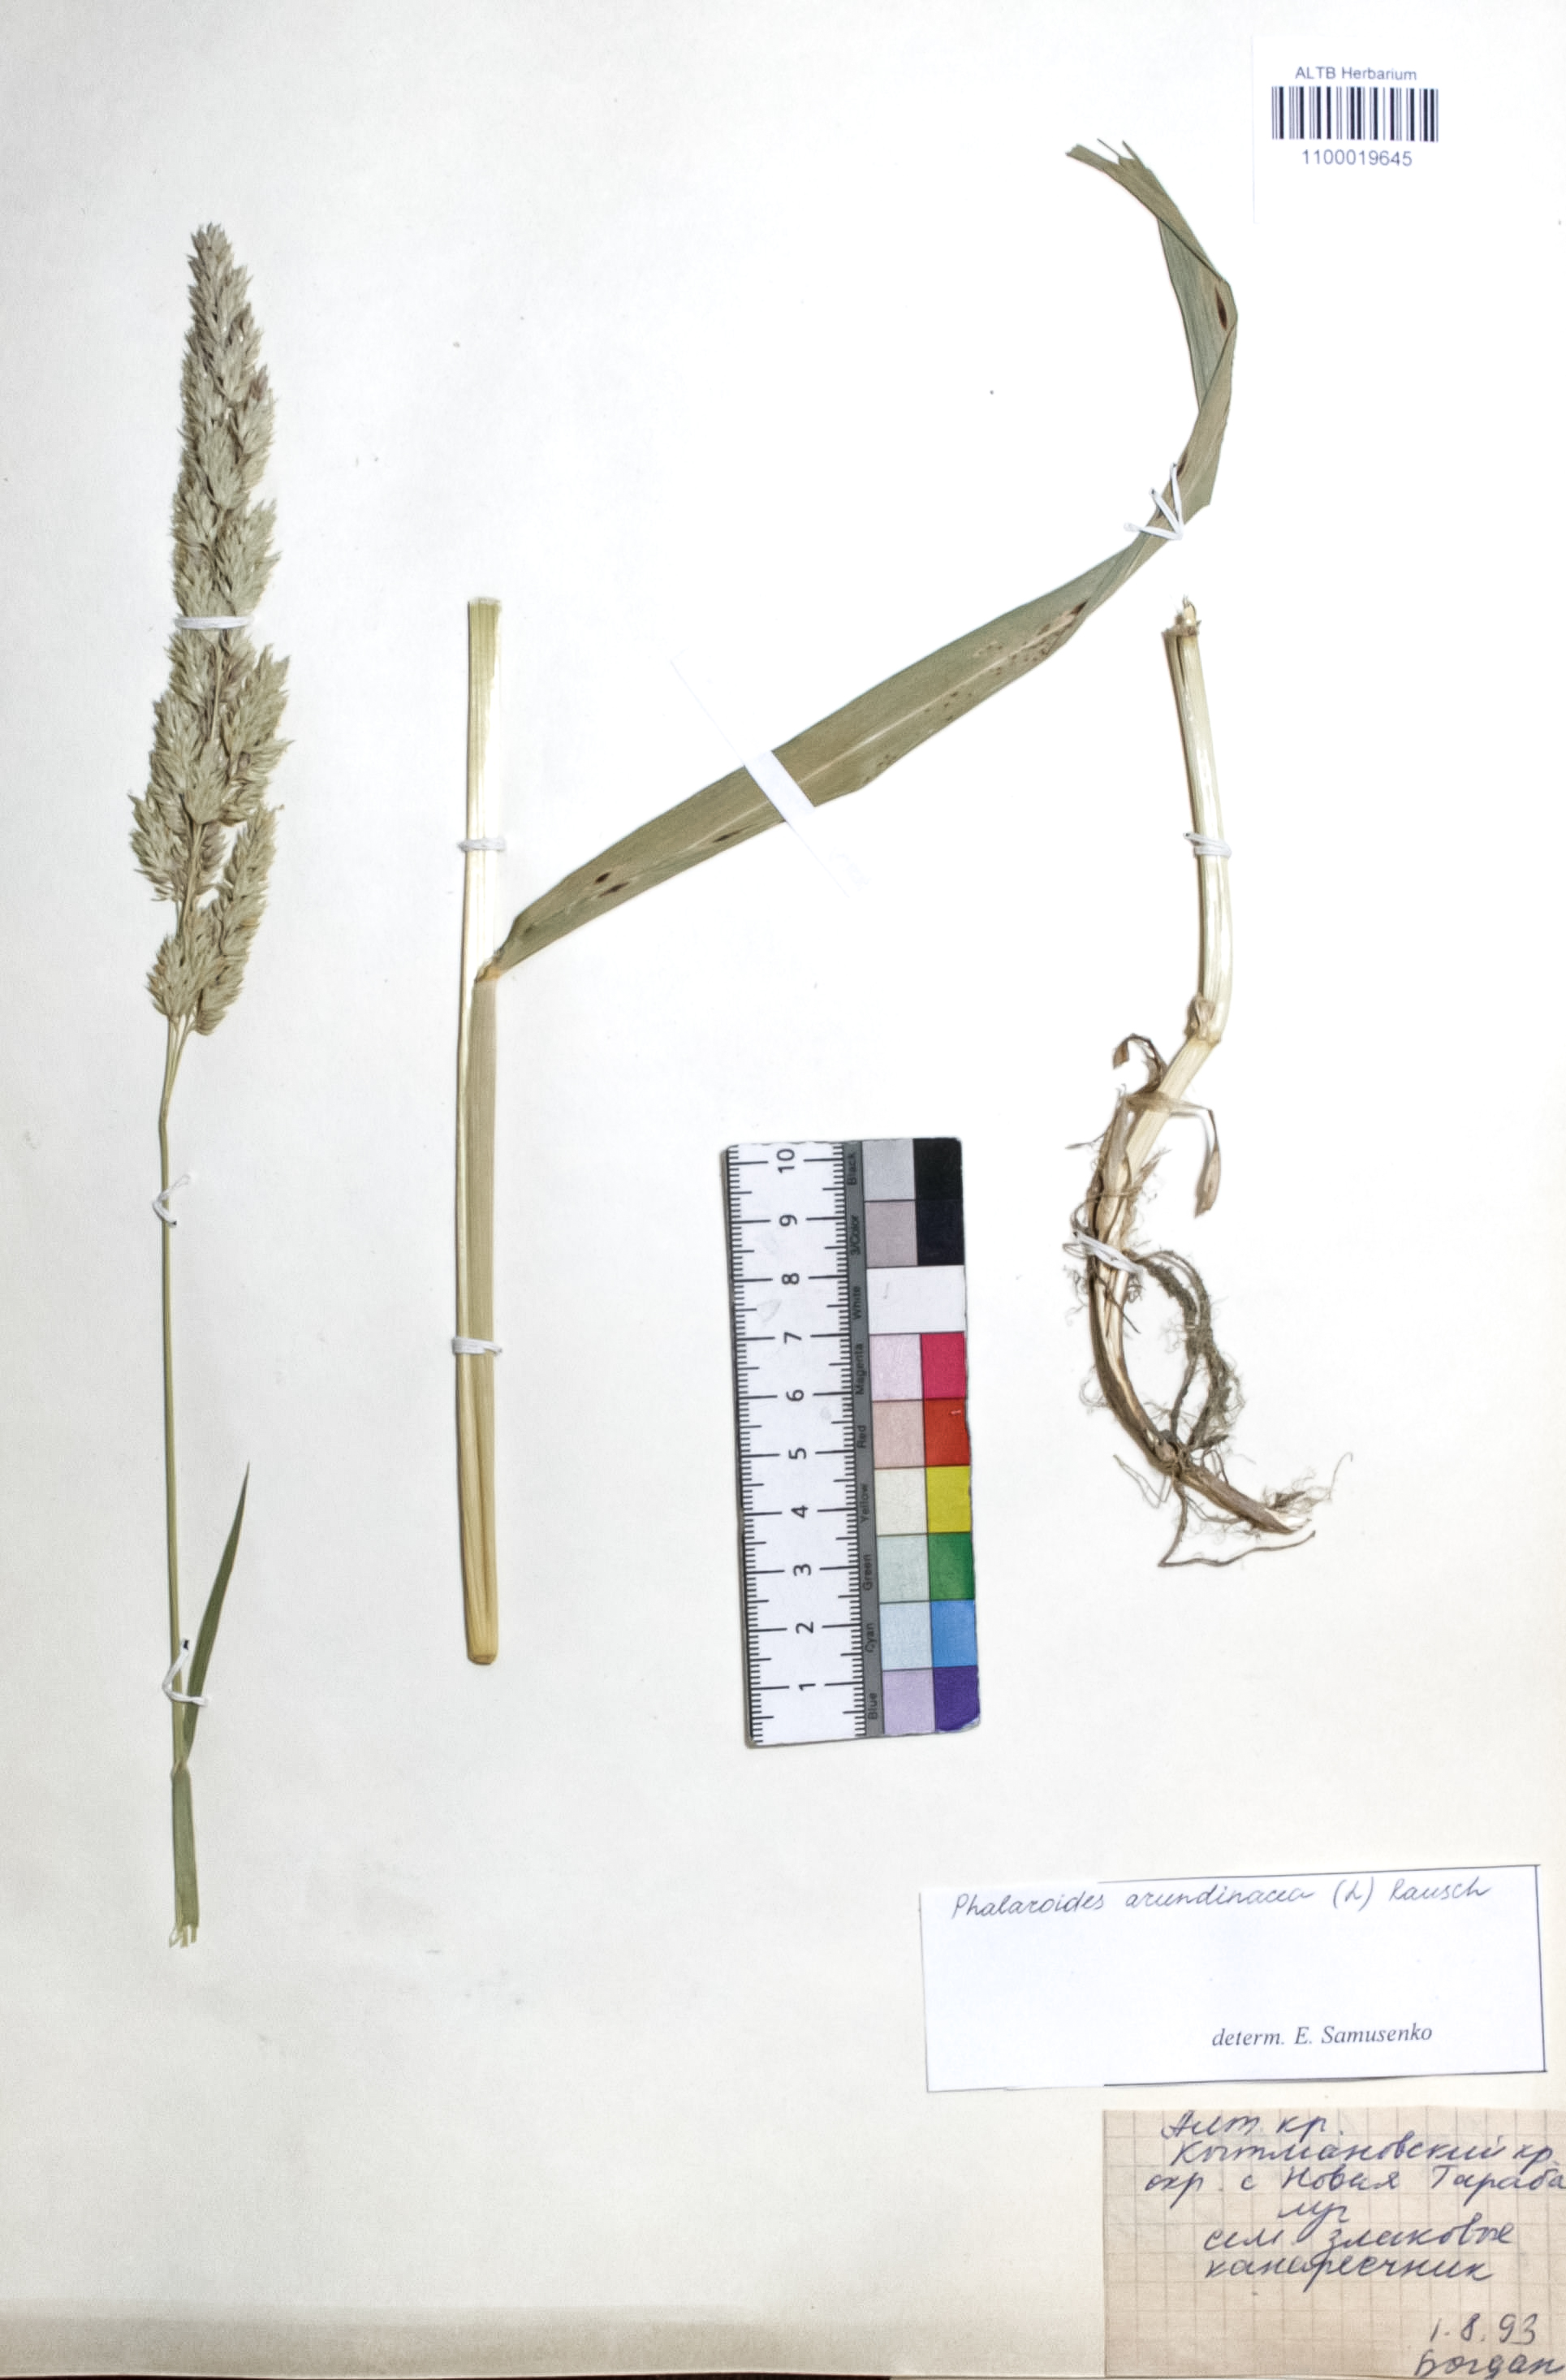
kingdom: Plantae
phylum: Tracheophyta
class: Liliopsida
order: Poales
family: Poaceae
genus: Phalaris
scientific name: Phalaris arundinacea
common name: Reed canary-grass
